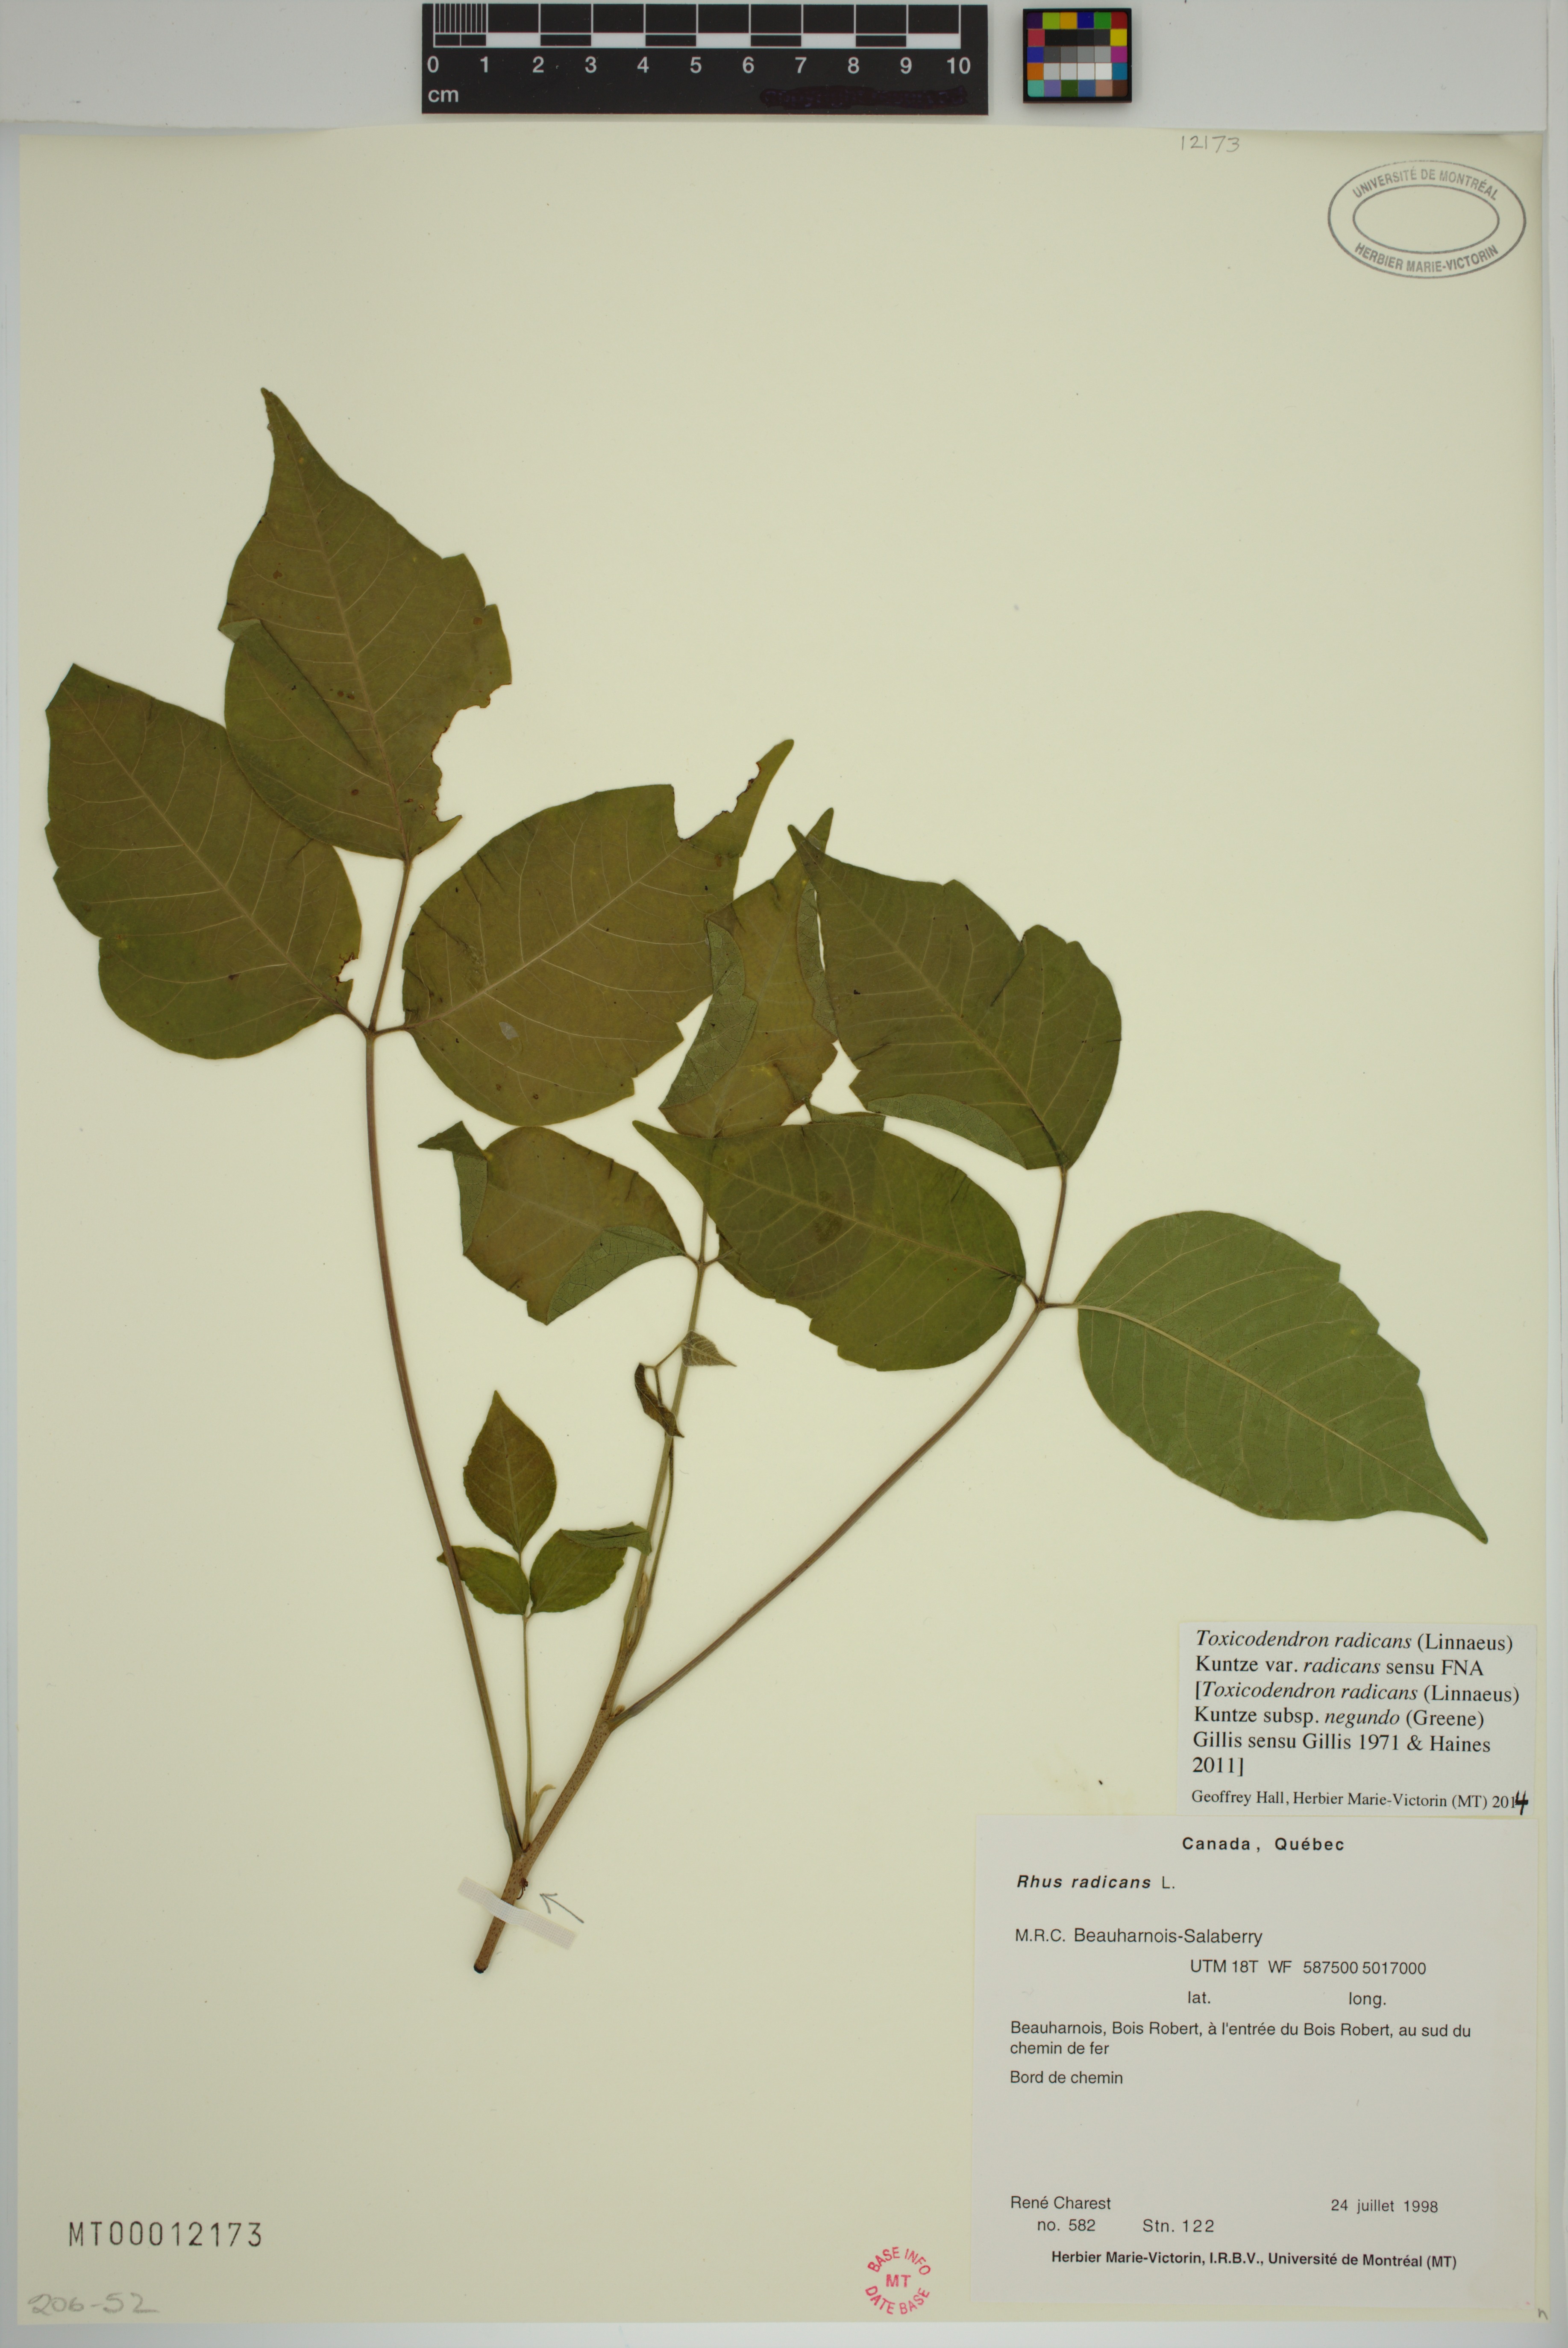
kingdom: Plantae
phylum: Tracheophyta
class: Magnoliopsida
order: Sapindales
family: Anacardiaceae
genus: Toxicodendron
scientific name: Toxicodendron radicans
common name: Poison ivy
